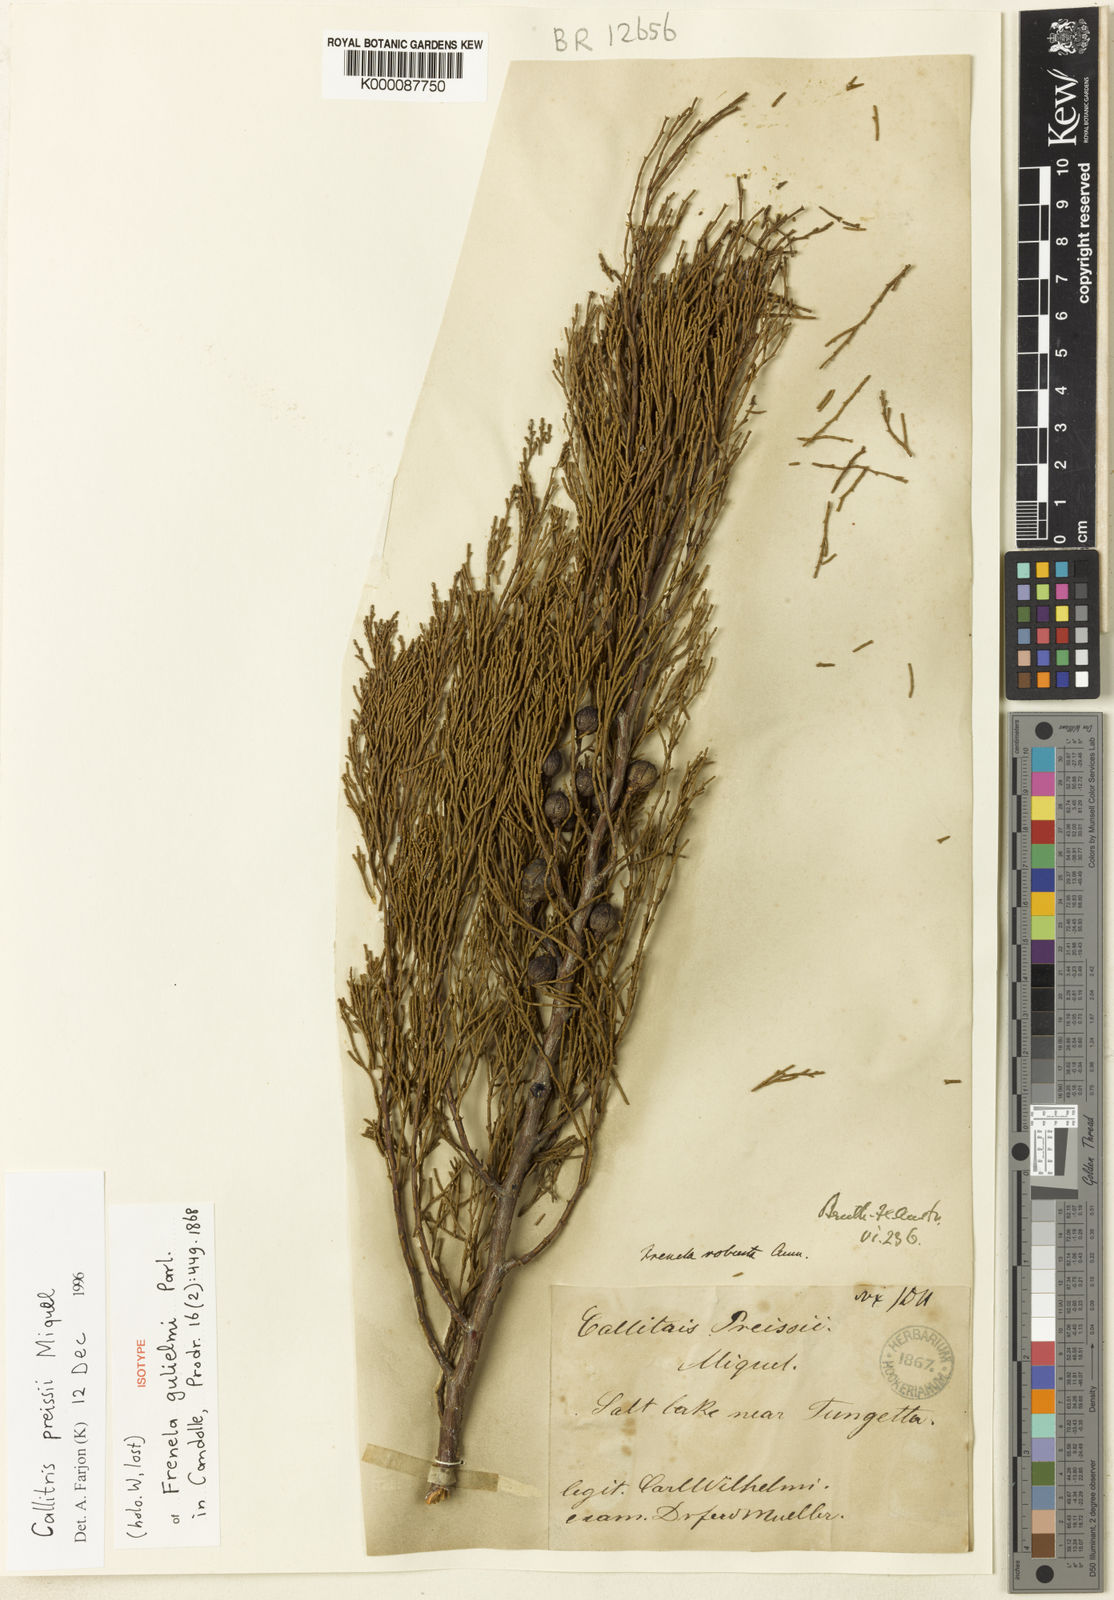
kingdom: Plantae
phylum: Tracheophyta
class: Pinopsida
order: Pinales
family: Cupressaceae
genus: Callitris
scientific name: Callitris preissii
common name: Mallee pine
